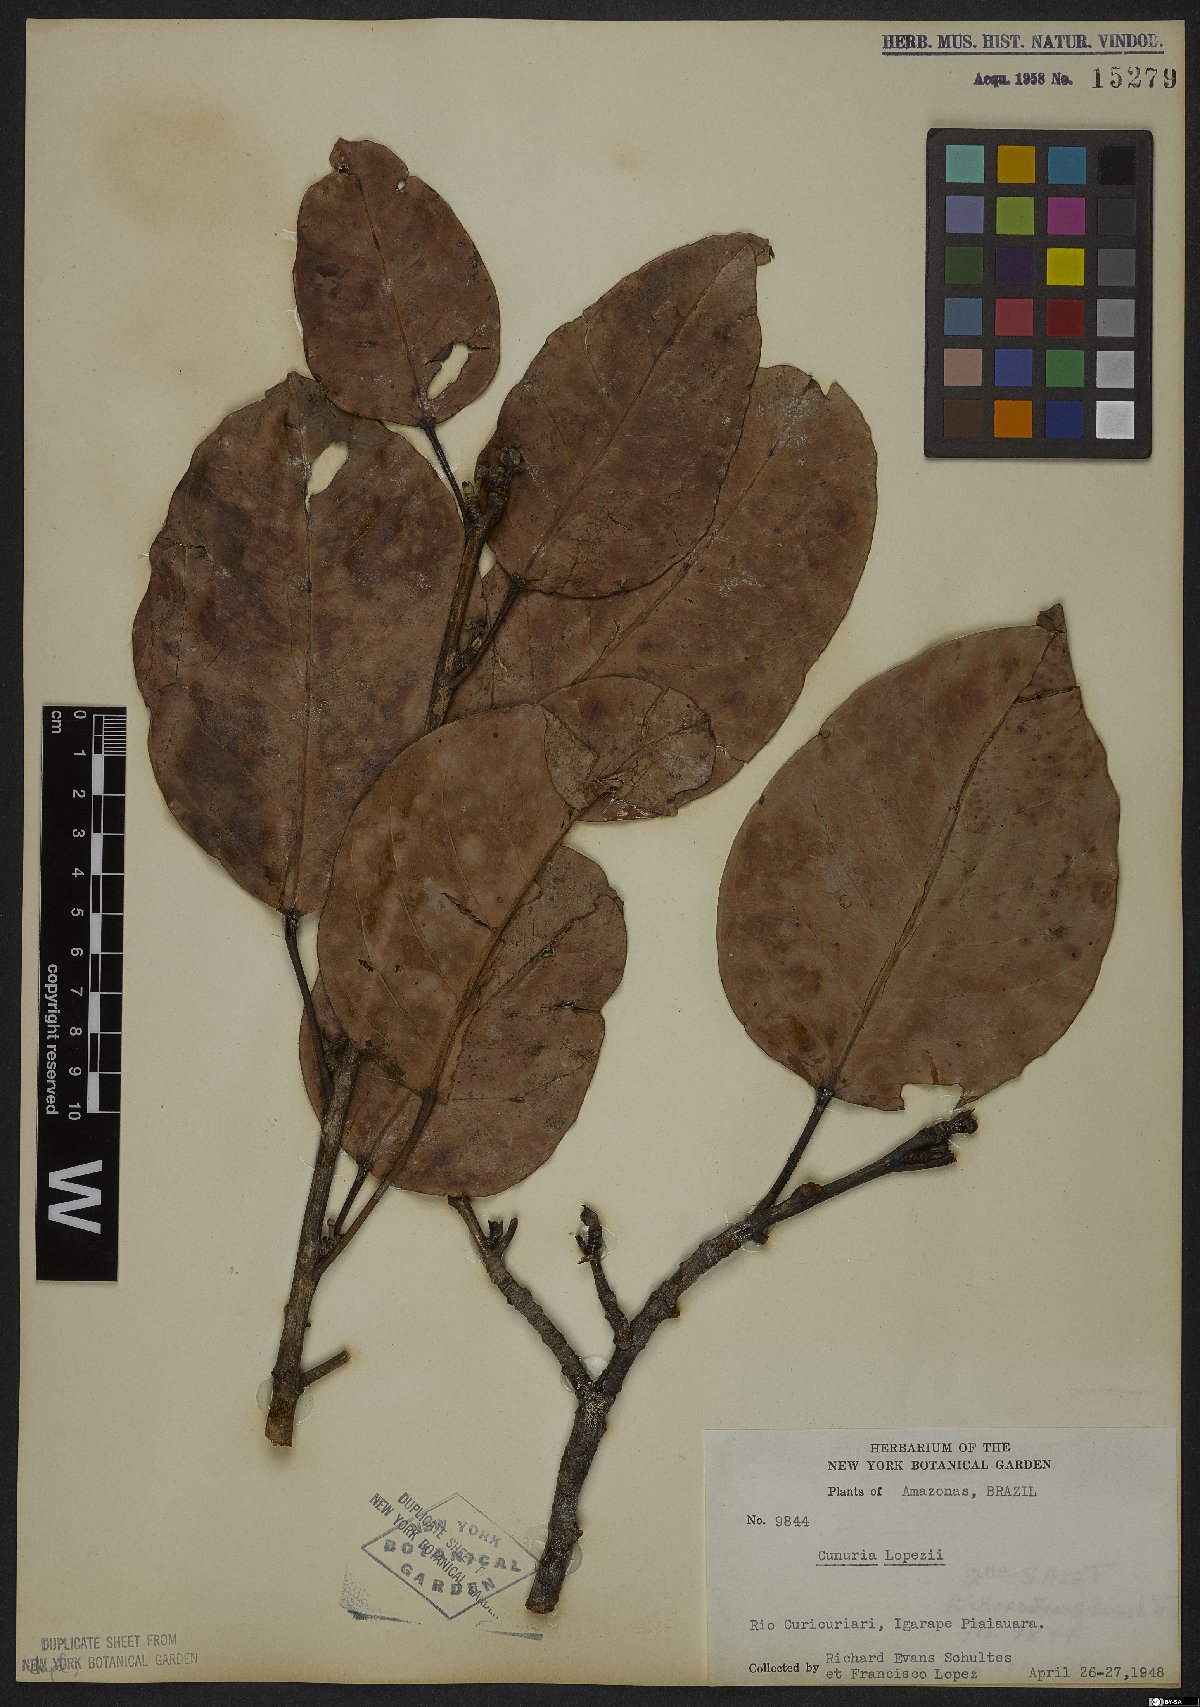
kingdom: Plantae
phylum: Tracheophyta
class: Magnoliopsida
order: Malpighiales
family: Euphorbiaceae
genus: Micrandra
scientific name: Micrandra lopezii
